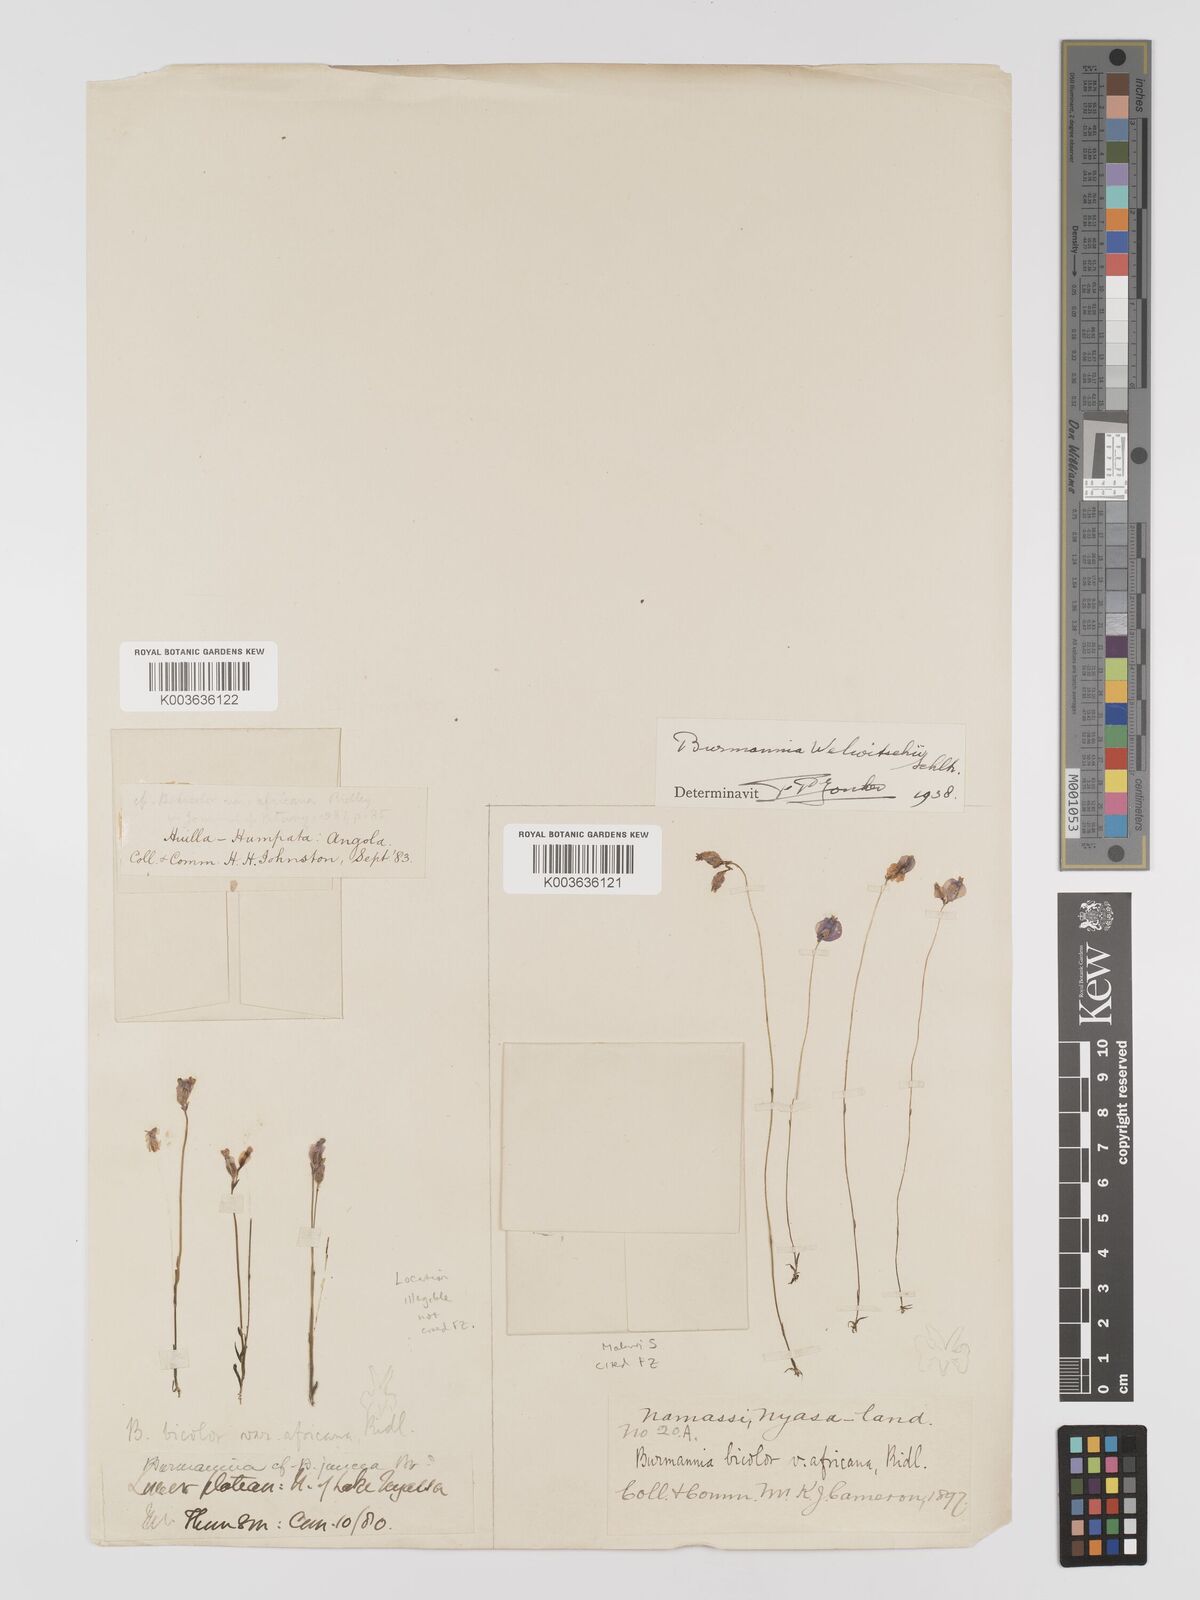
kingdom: Plantae
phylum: Tracheophyta
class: Liliopsida
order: Dioscoreales
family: Burmanniaceae
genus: Burmannia
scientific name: Burmannia madagascariensis
